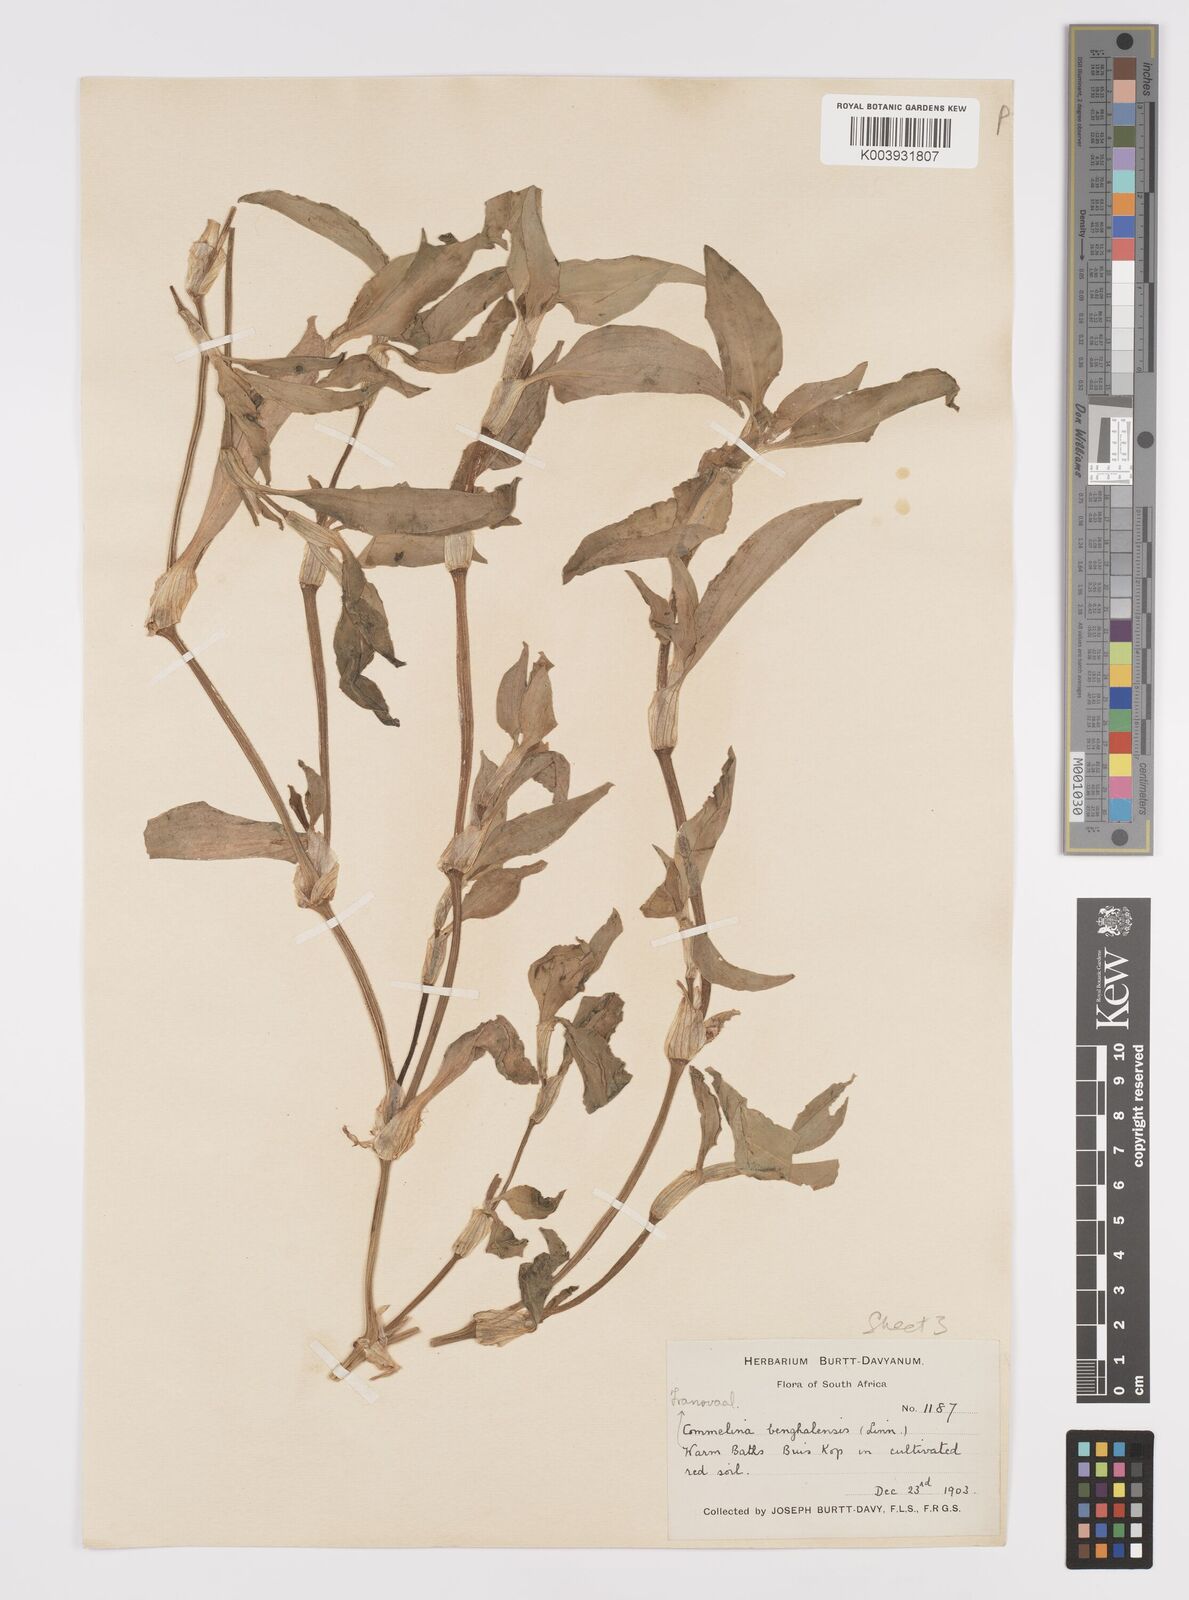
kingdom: Plantae
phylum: Tracheophyta
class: Liliopsida
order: Commelinales
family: Commelinaceae
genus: Commelina
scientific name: Commelina benghalensis
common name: Jio
